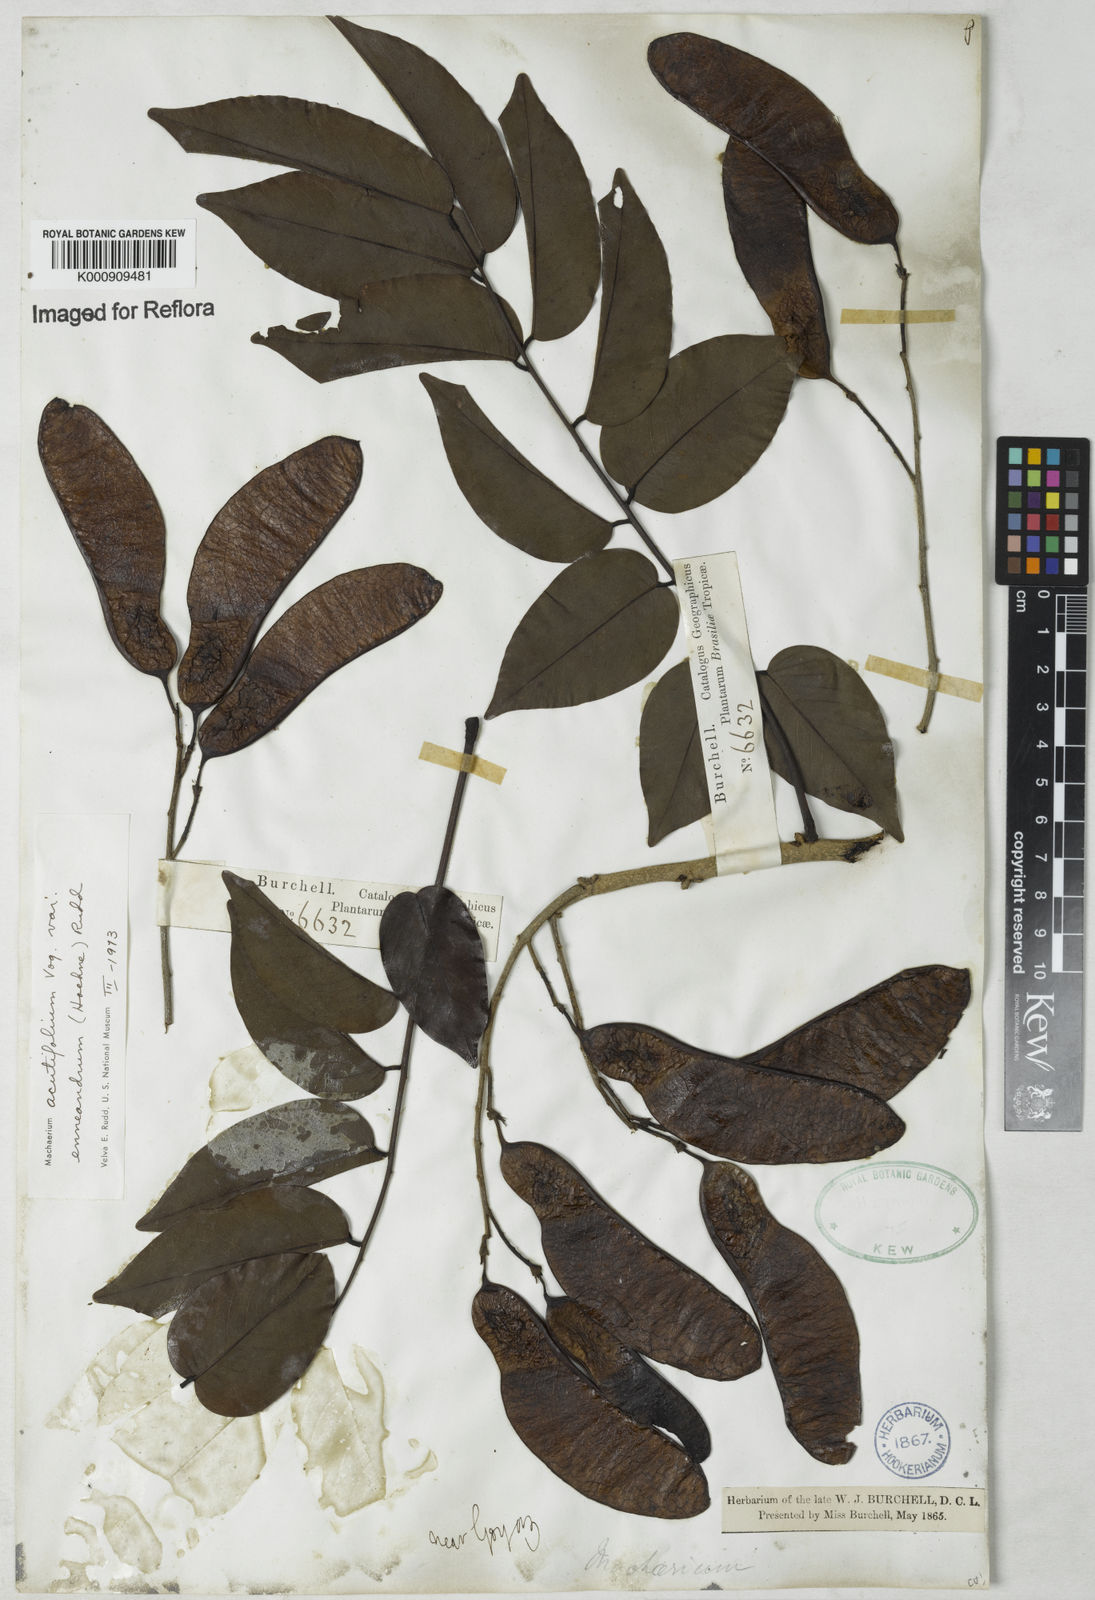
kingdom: Plantae
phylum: Tracheophyta
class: Magnoliopsida
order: Fabales
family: Fabaceae
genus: Machaerium
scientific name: Machaerium acutifolium
